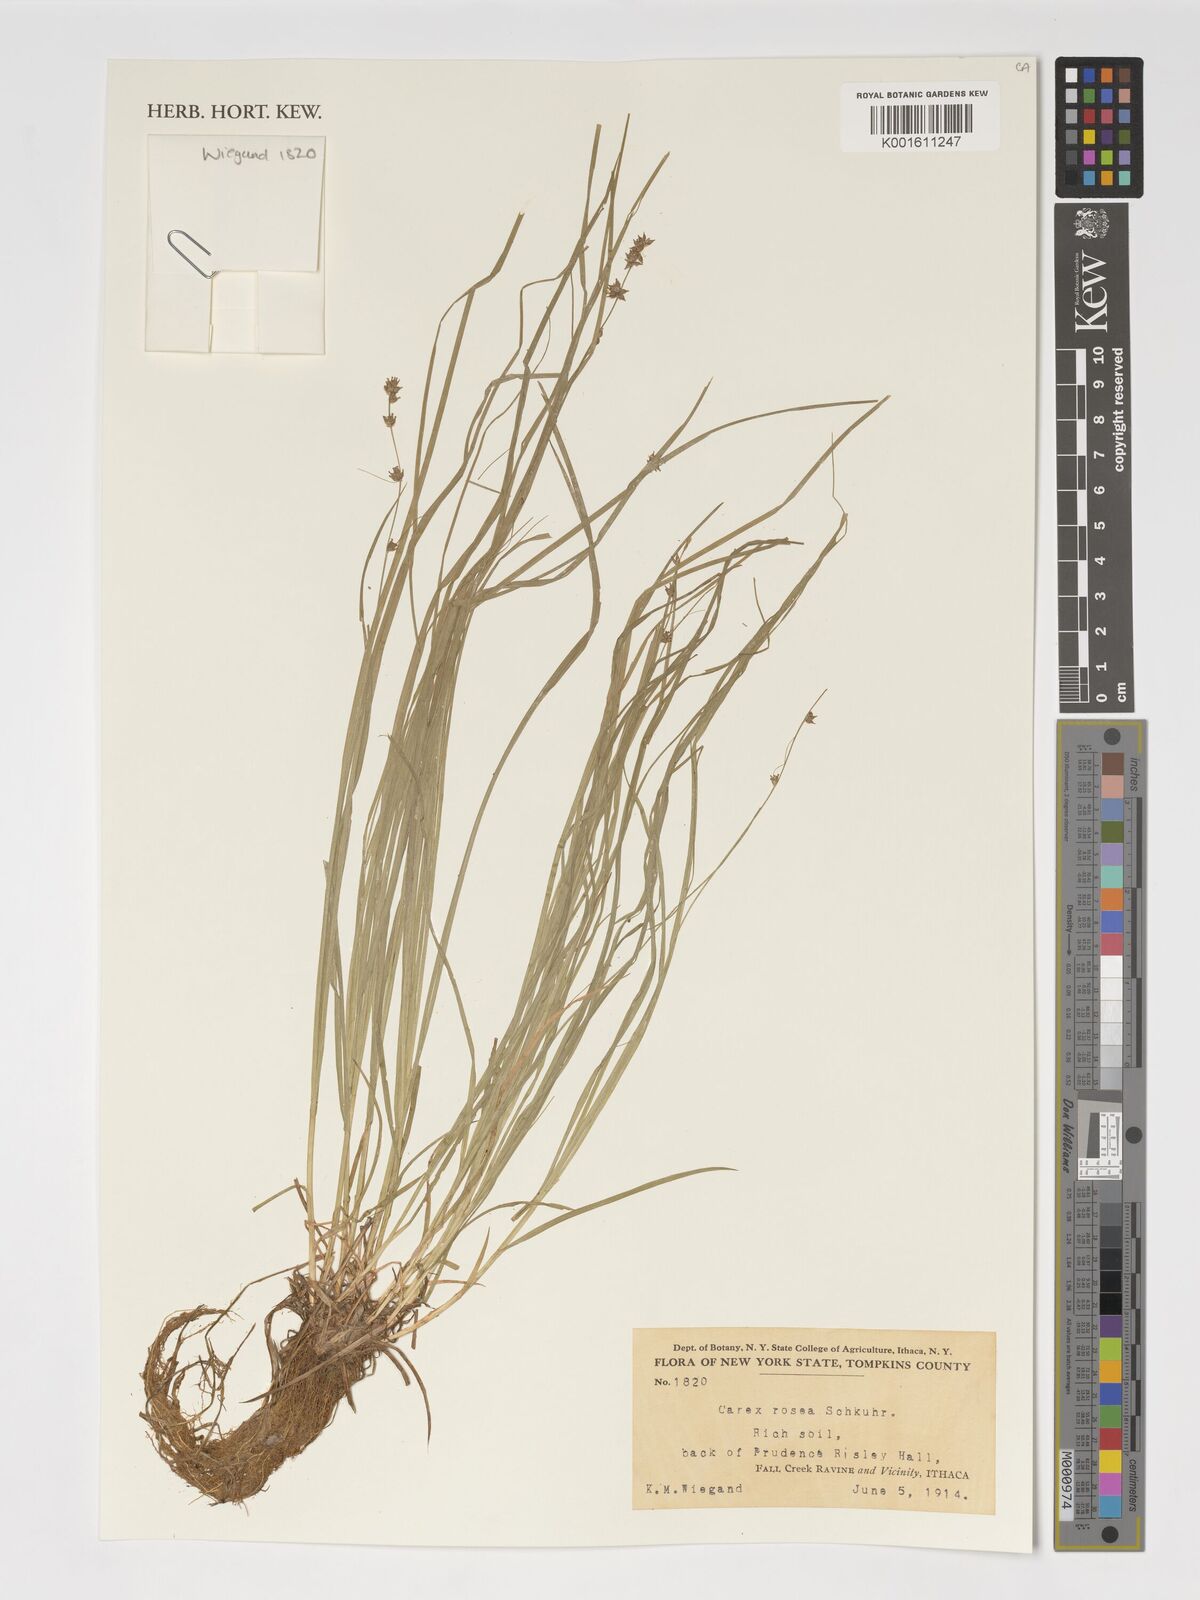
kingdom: Plantae
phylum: Tracheophyta
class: Liliopsida
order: Poales
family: Cyperaceae
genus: Carex
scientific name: Carex rosea
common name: Curly-styled wood sedge
